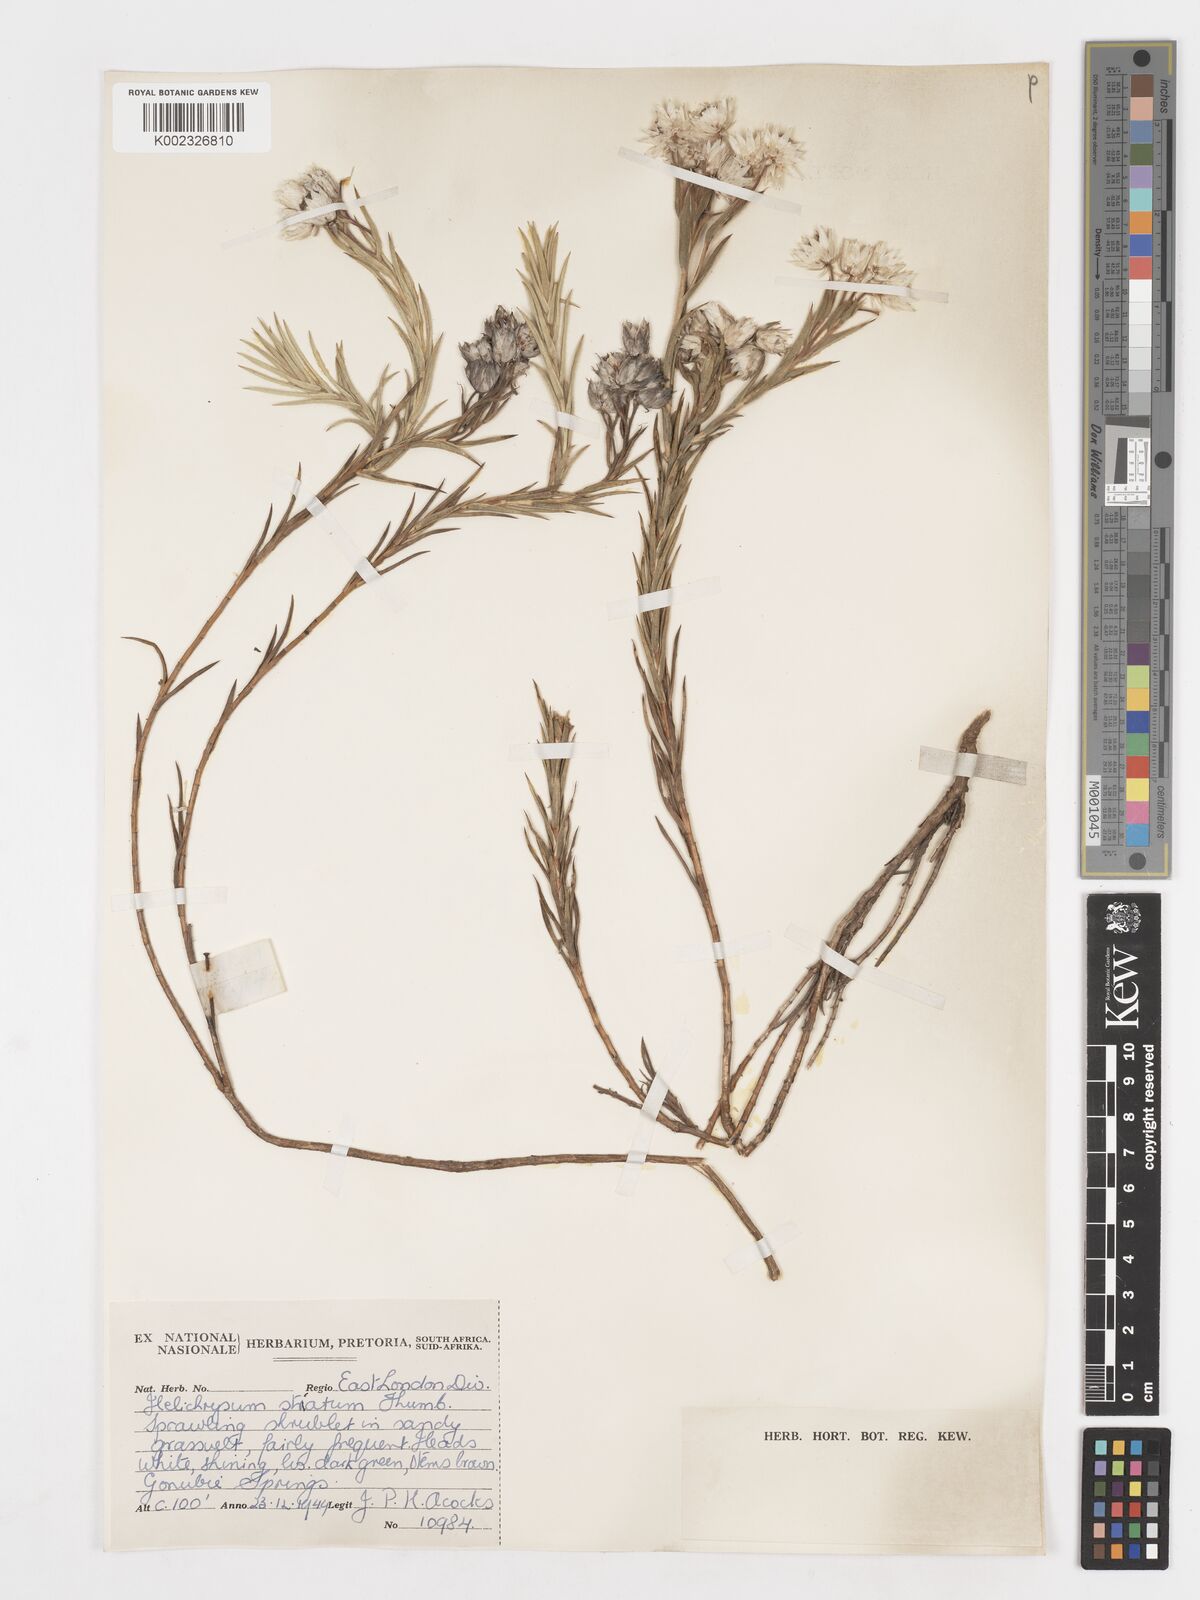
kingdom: Plantae
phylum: Tracheophyta
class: Magnoliopsida
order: Asterales
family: Asteraceae
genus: Achyranthemum
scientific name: Achyranthemum striatum
